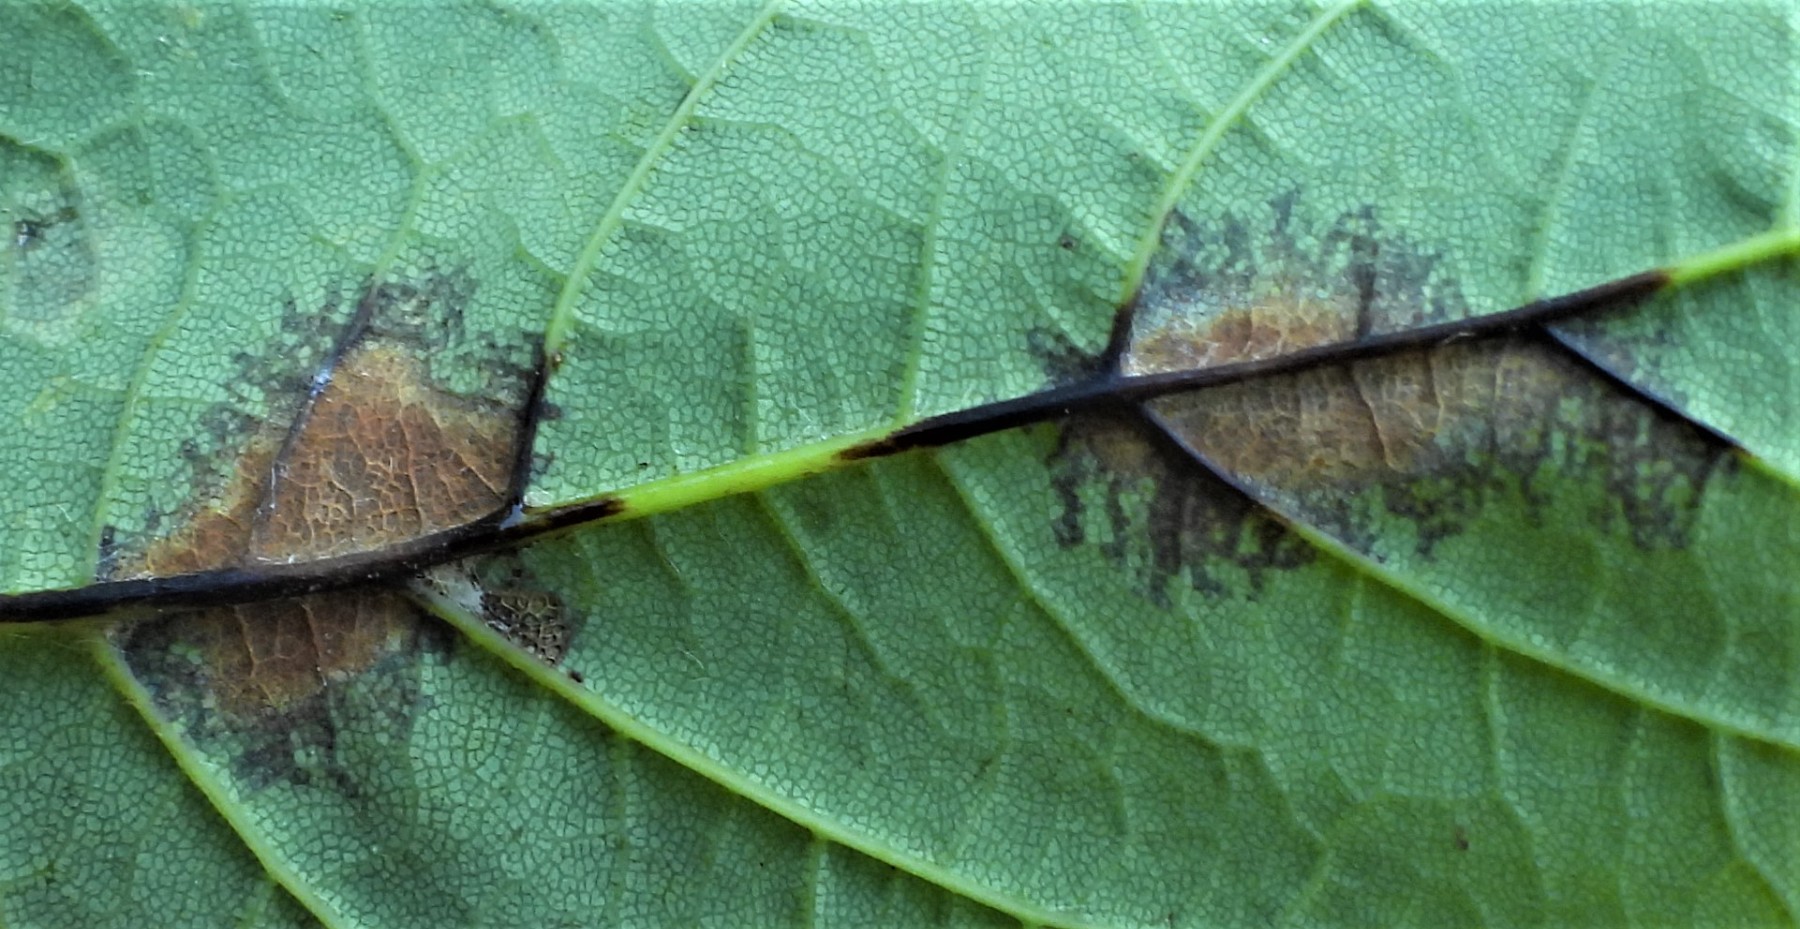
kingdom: Fungi
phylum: Ascomycota
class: Sordariomycetes
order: Diaporthales
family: Gnomoniaceae
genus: Pleuroceras
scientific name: Pleuroceras pseudoplatani
